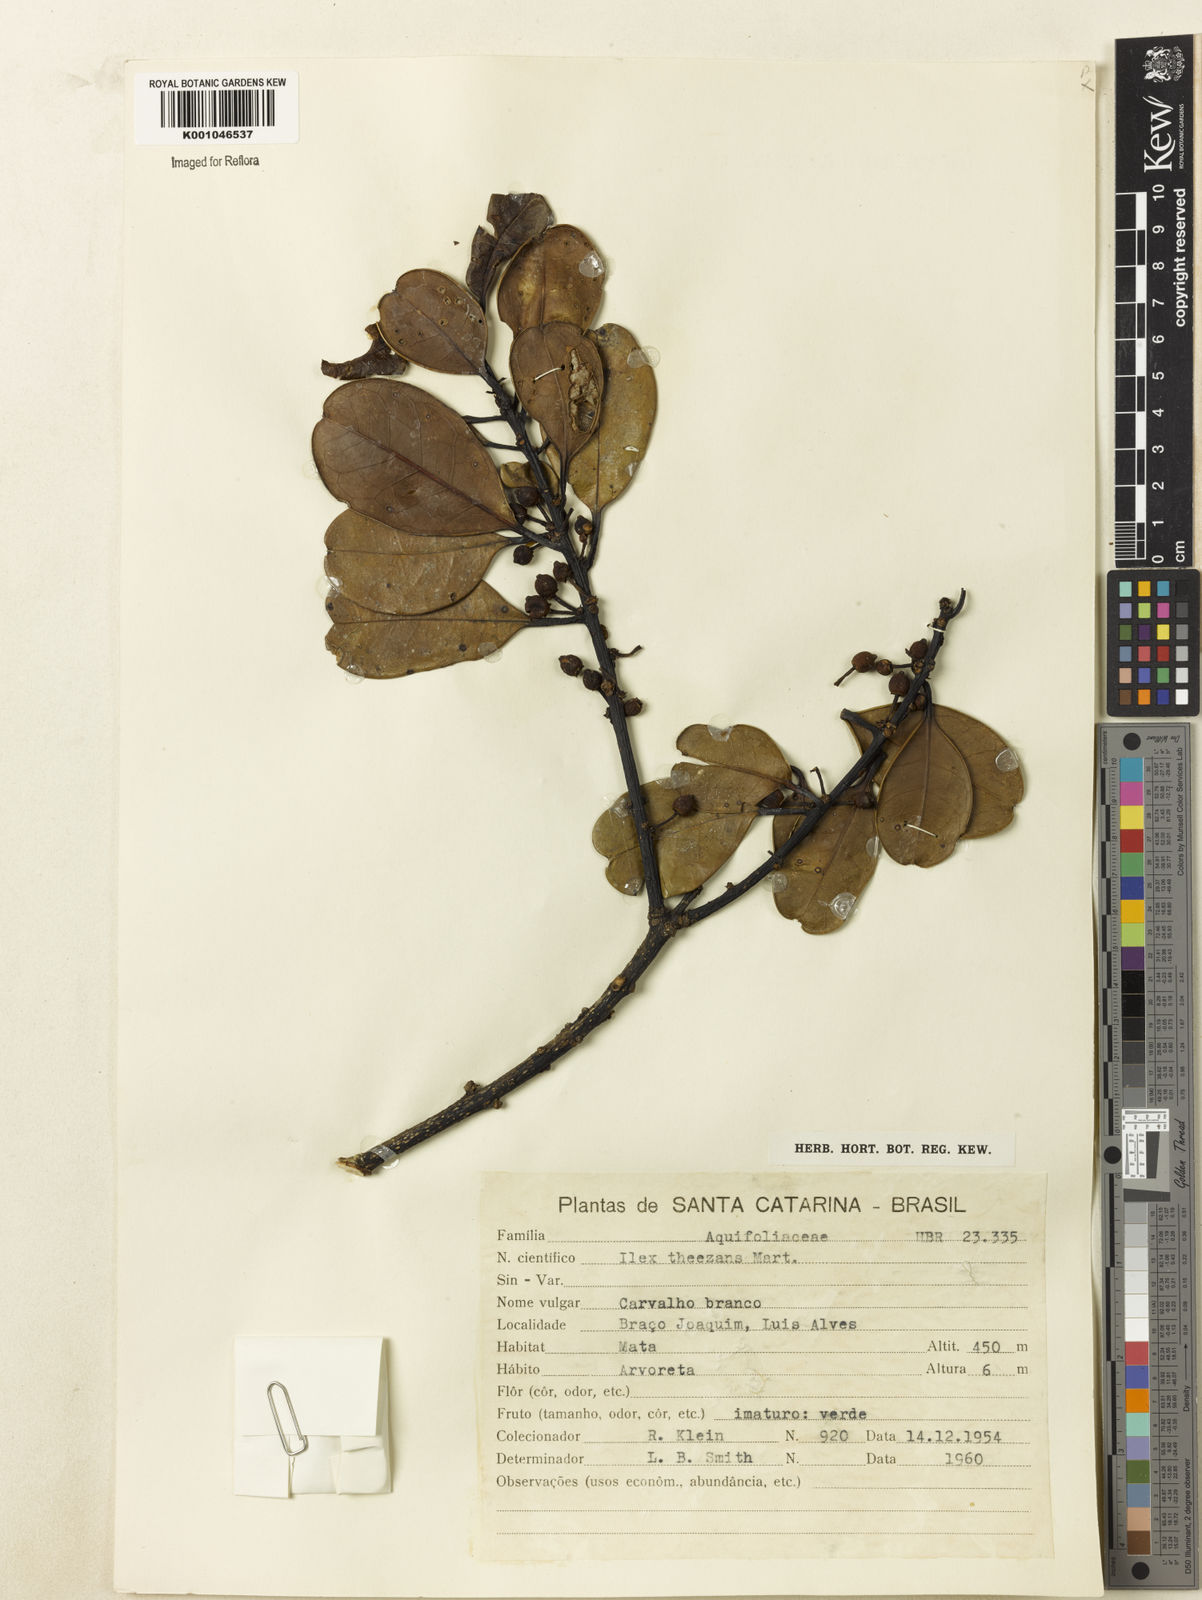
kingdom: Plantae
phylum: Tracheophyta
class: Magnoliopsida
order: Aquifoliales
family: Aquifoliaceae
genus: Ilex
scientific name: Ilex theezans
